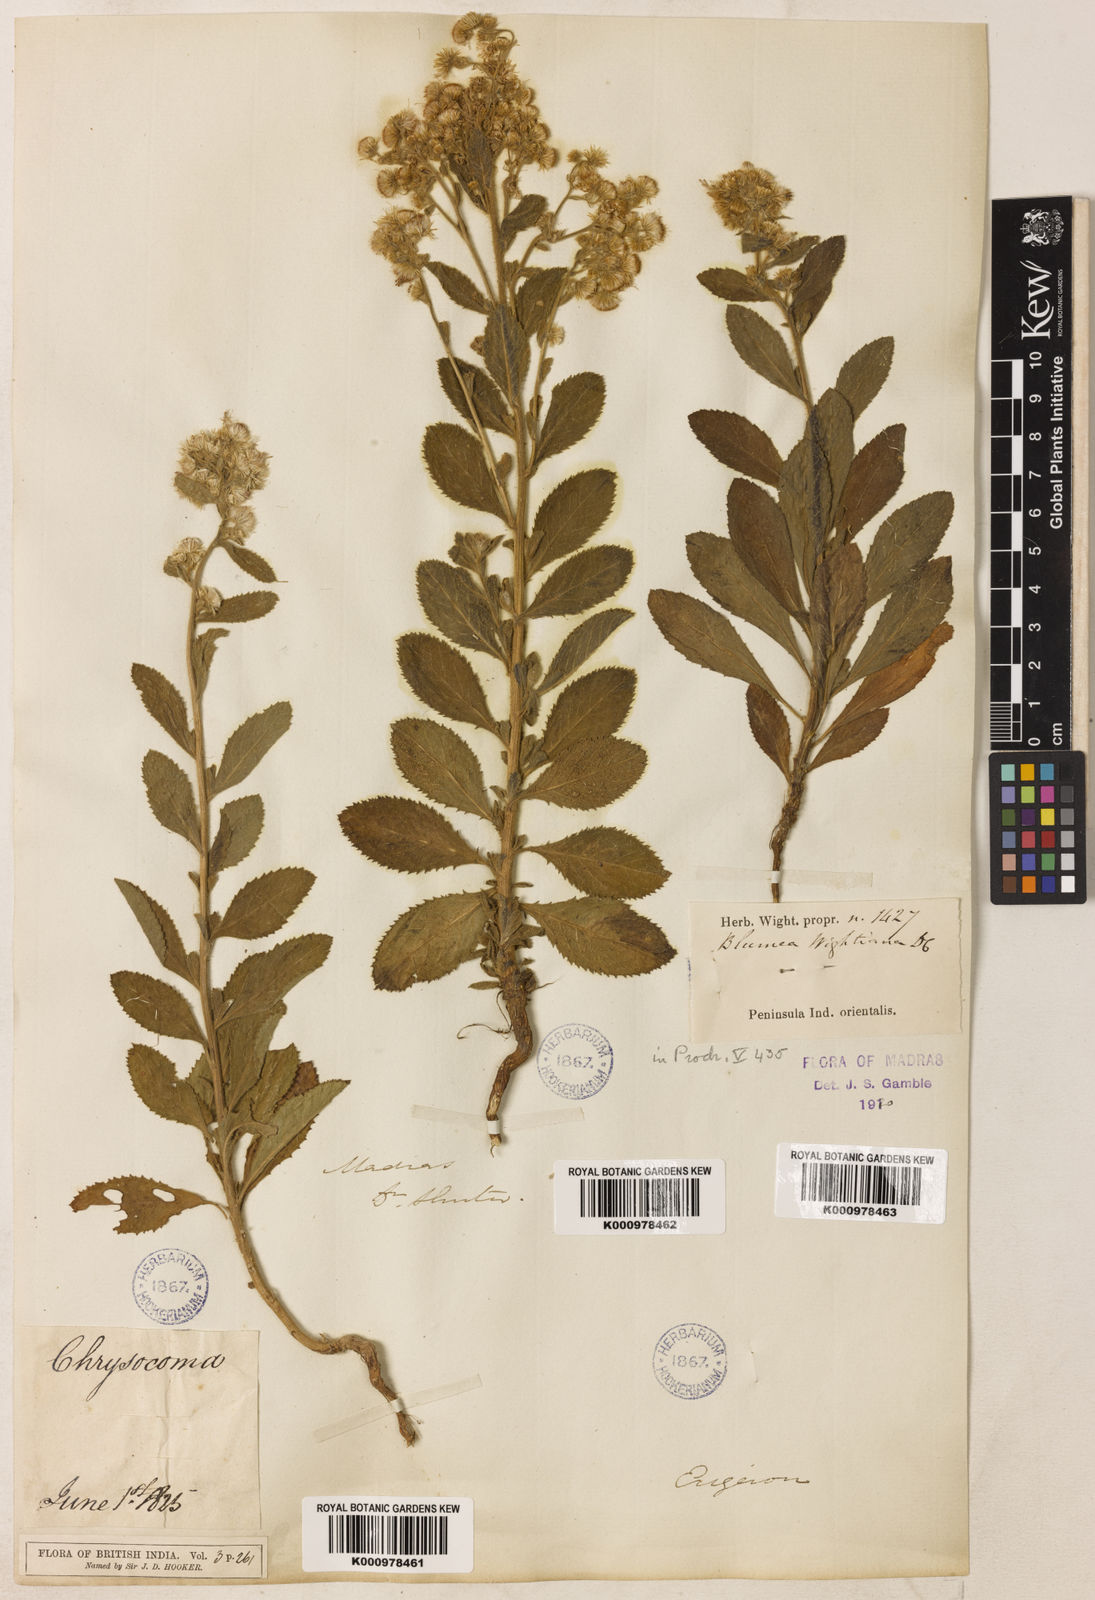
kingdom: Plantae
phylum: Tracheophyta
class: Magnoliopsida
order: Asterales
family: Asteraceae
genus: Blumea
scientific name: Blumea axillaris
